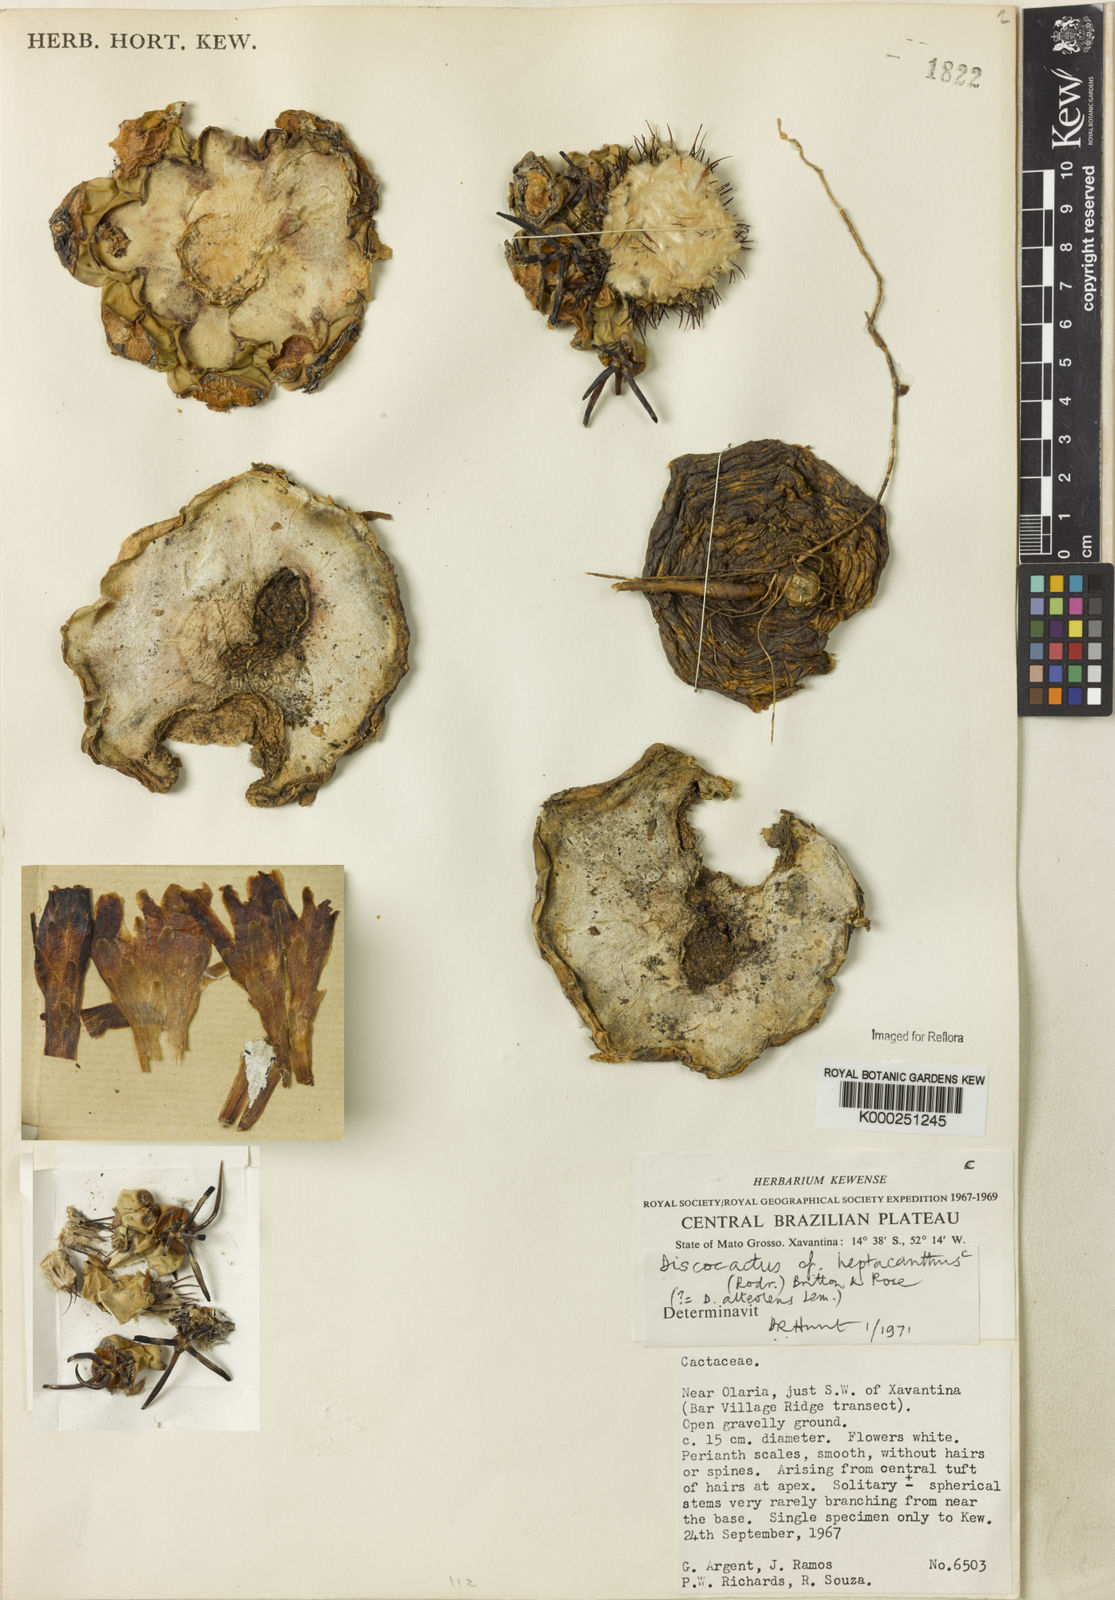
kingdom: Plantae
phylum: Tracheophyta
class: Magnoliopsida
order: Caryophyllales
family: Cactaceae
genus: Discocactus
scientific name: Discocactus heptacanthus
